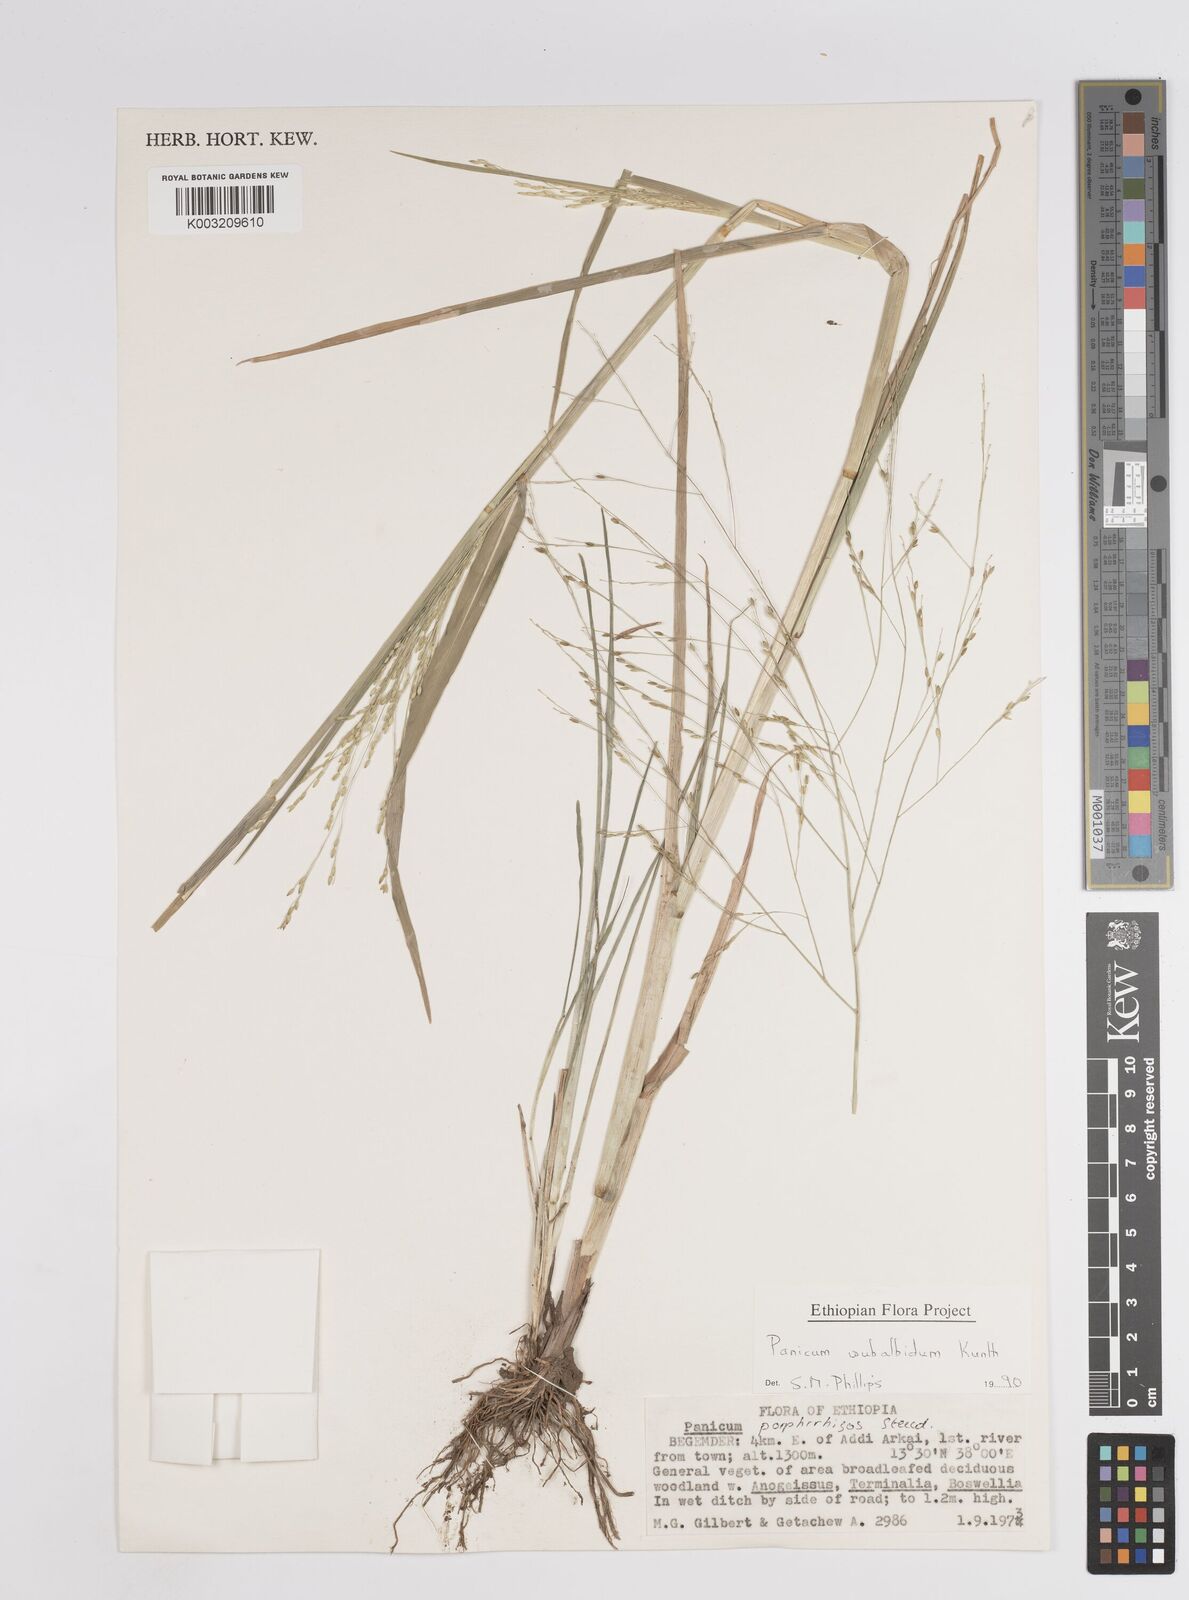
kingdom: Plantae
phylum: Tracheophyta
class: Liliopsida
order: Poales
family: Poaceae
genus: Panicum
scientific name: Panicum subalbidum
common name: Elbow buffalo grass
